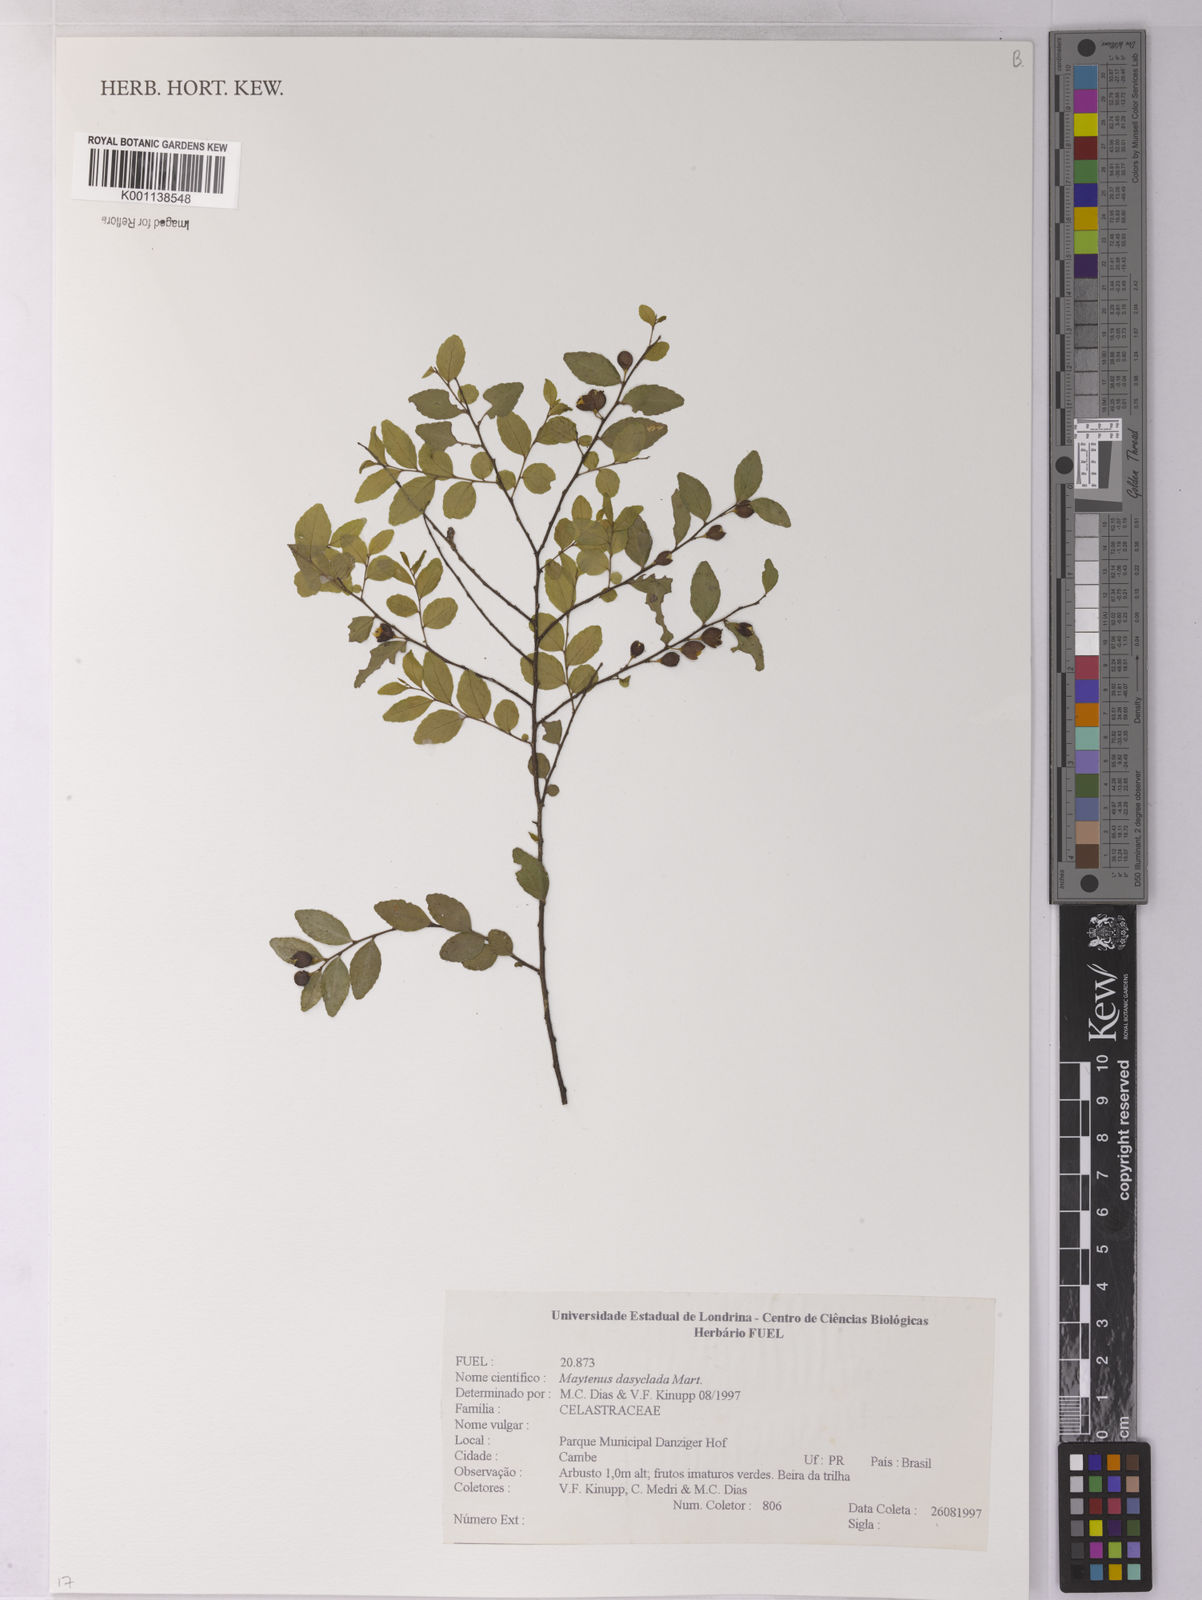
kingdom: Plantae
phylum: Tracheophyta
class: Magnoliopsida
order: Celastrales
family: Celastraceae
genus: Monteverdia
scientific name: Monteverdia dasyclados
